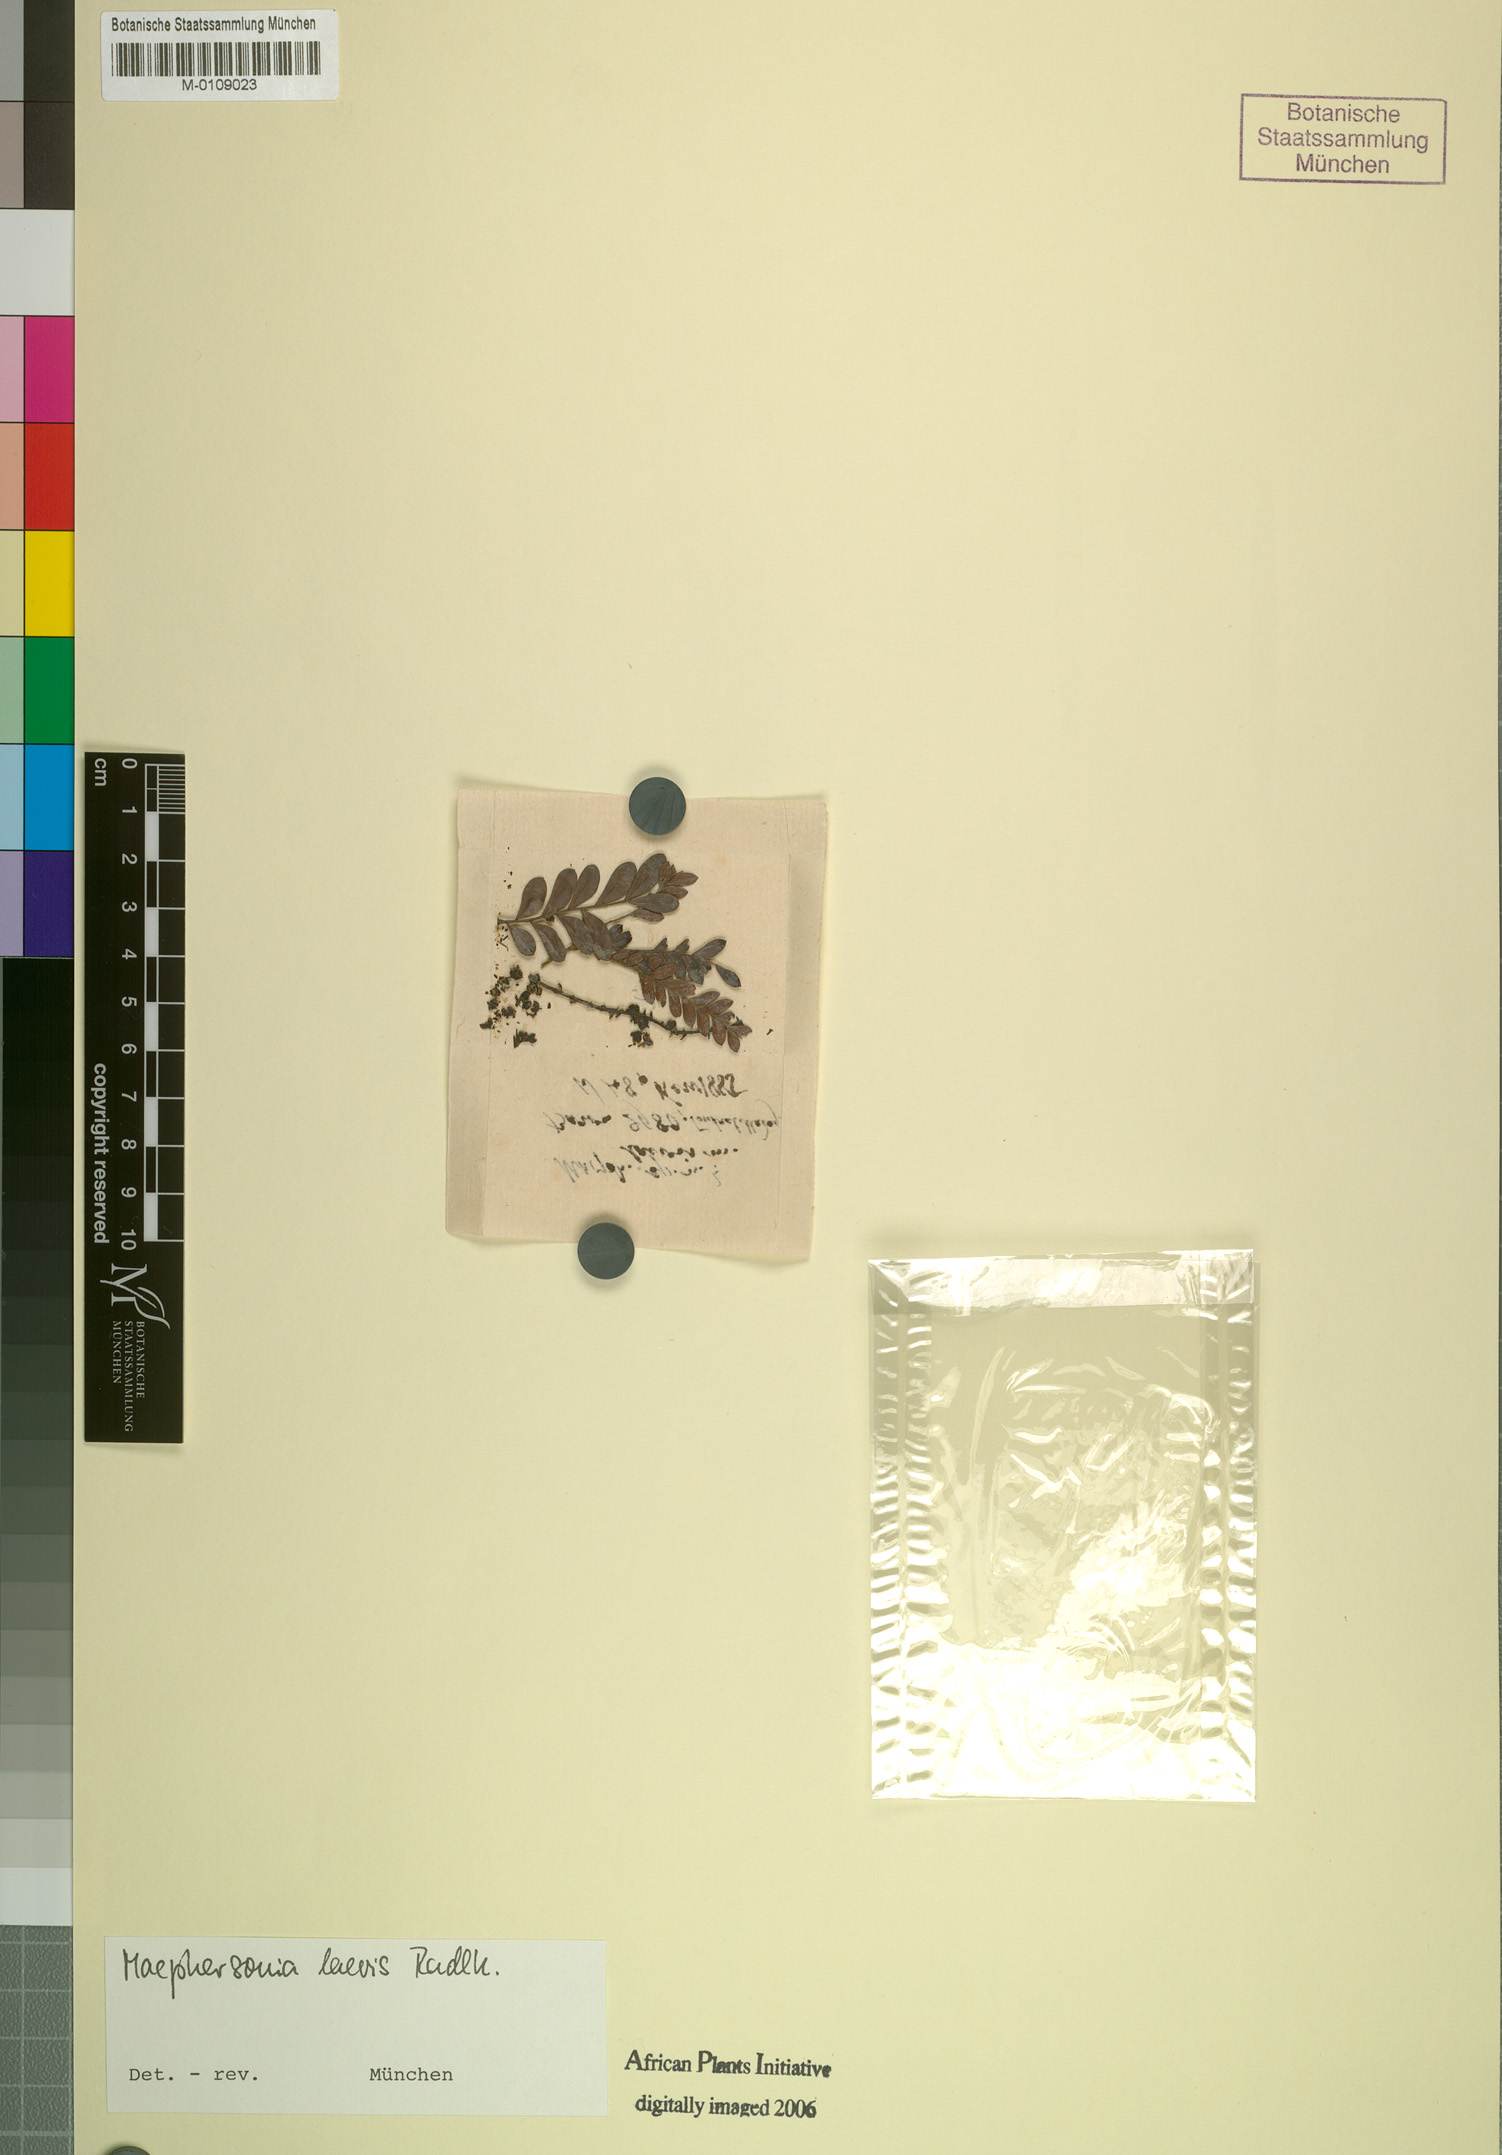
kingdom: Plantae
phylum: Tracheophyta
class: Magnoliopsida
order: Sapindales
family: Sapindaceae
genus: Macphersonia
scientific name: Macphersonia gracilis
